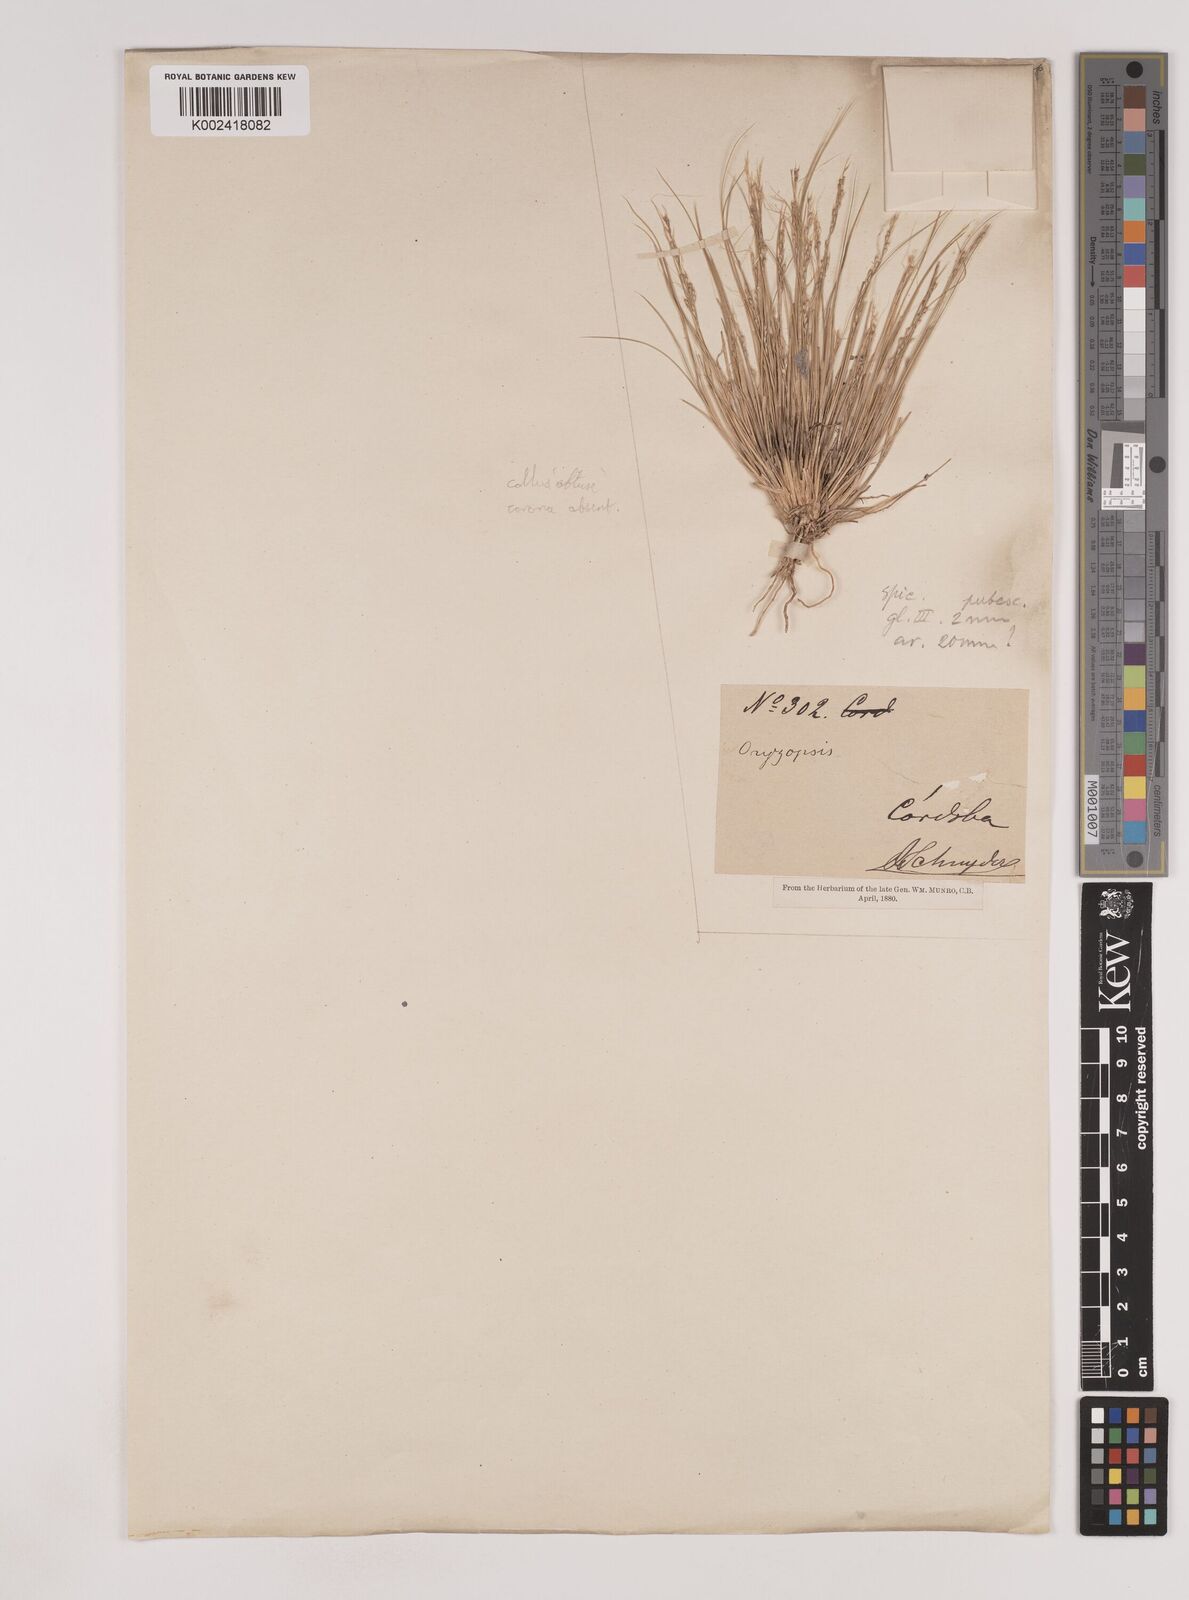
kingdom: Plantae
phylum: Tracheophyta
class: Liliopsida
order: Poales
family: Poaceae
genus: Nassella
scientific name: Nassella
